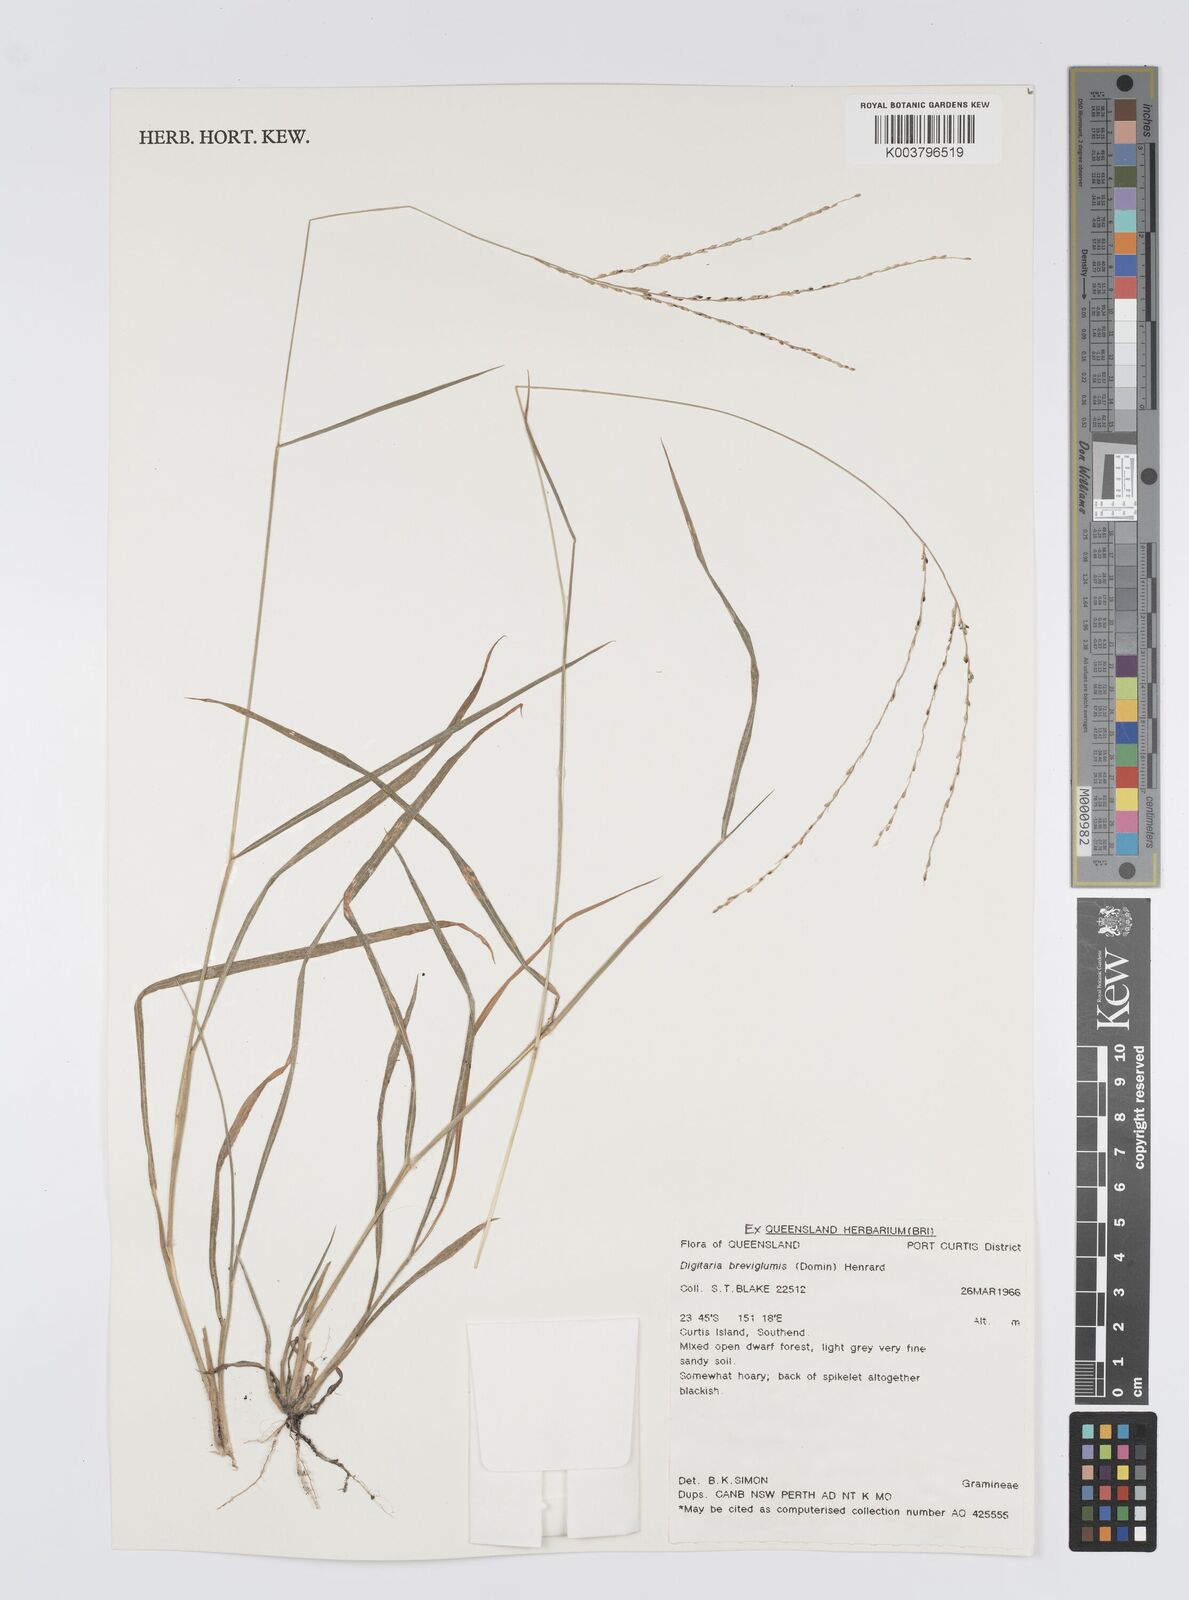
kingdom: Plantae
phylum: Tracheophyta
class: Liliopsida
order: Poales
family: Poaceae
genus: Digitaria
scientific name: Digitaria breviglumis
